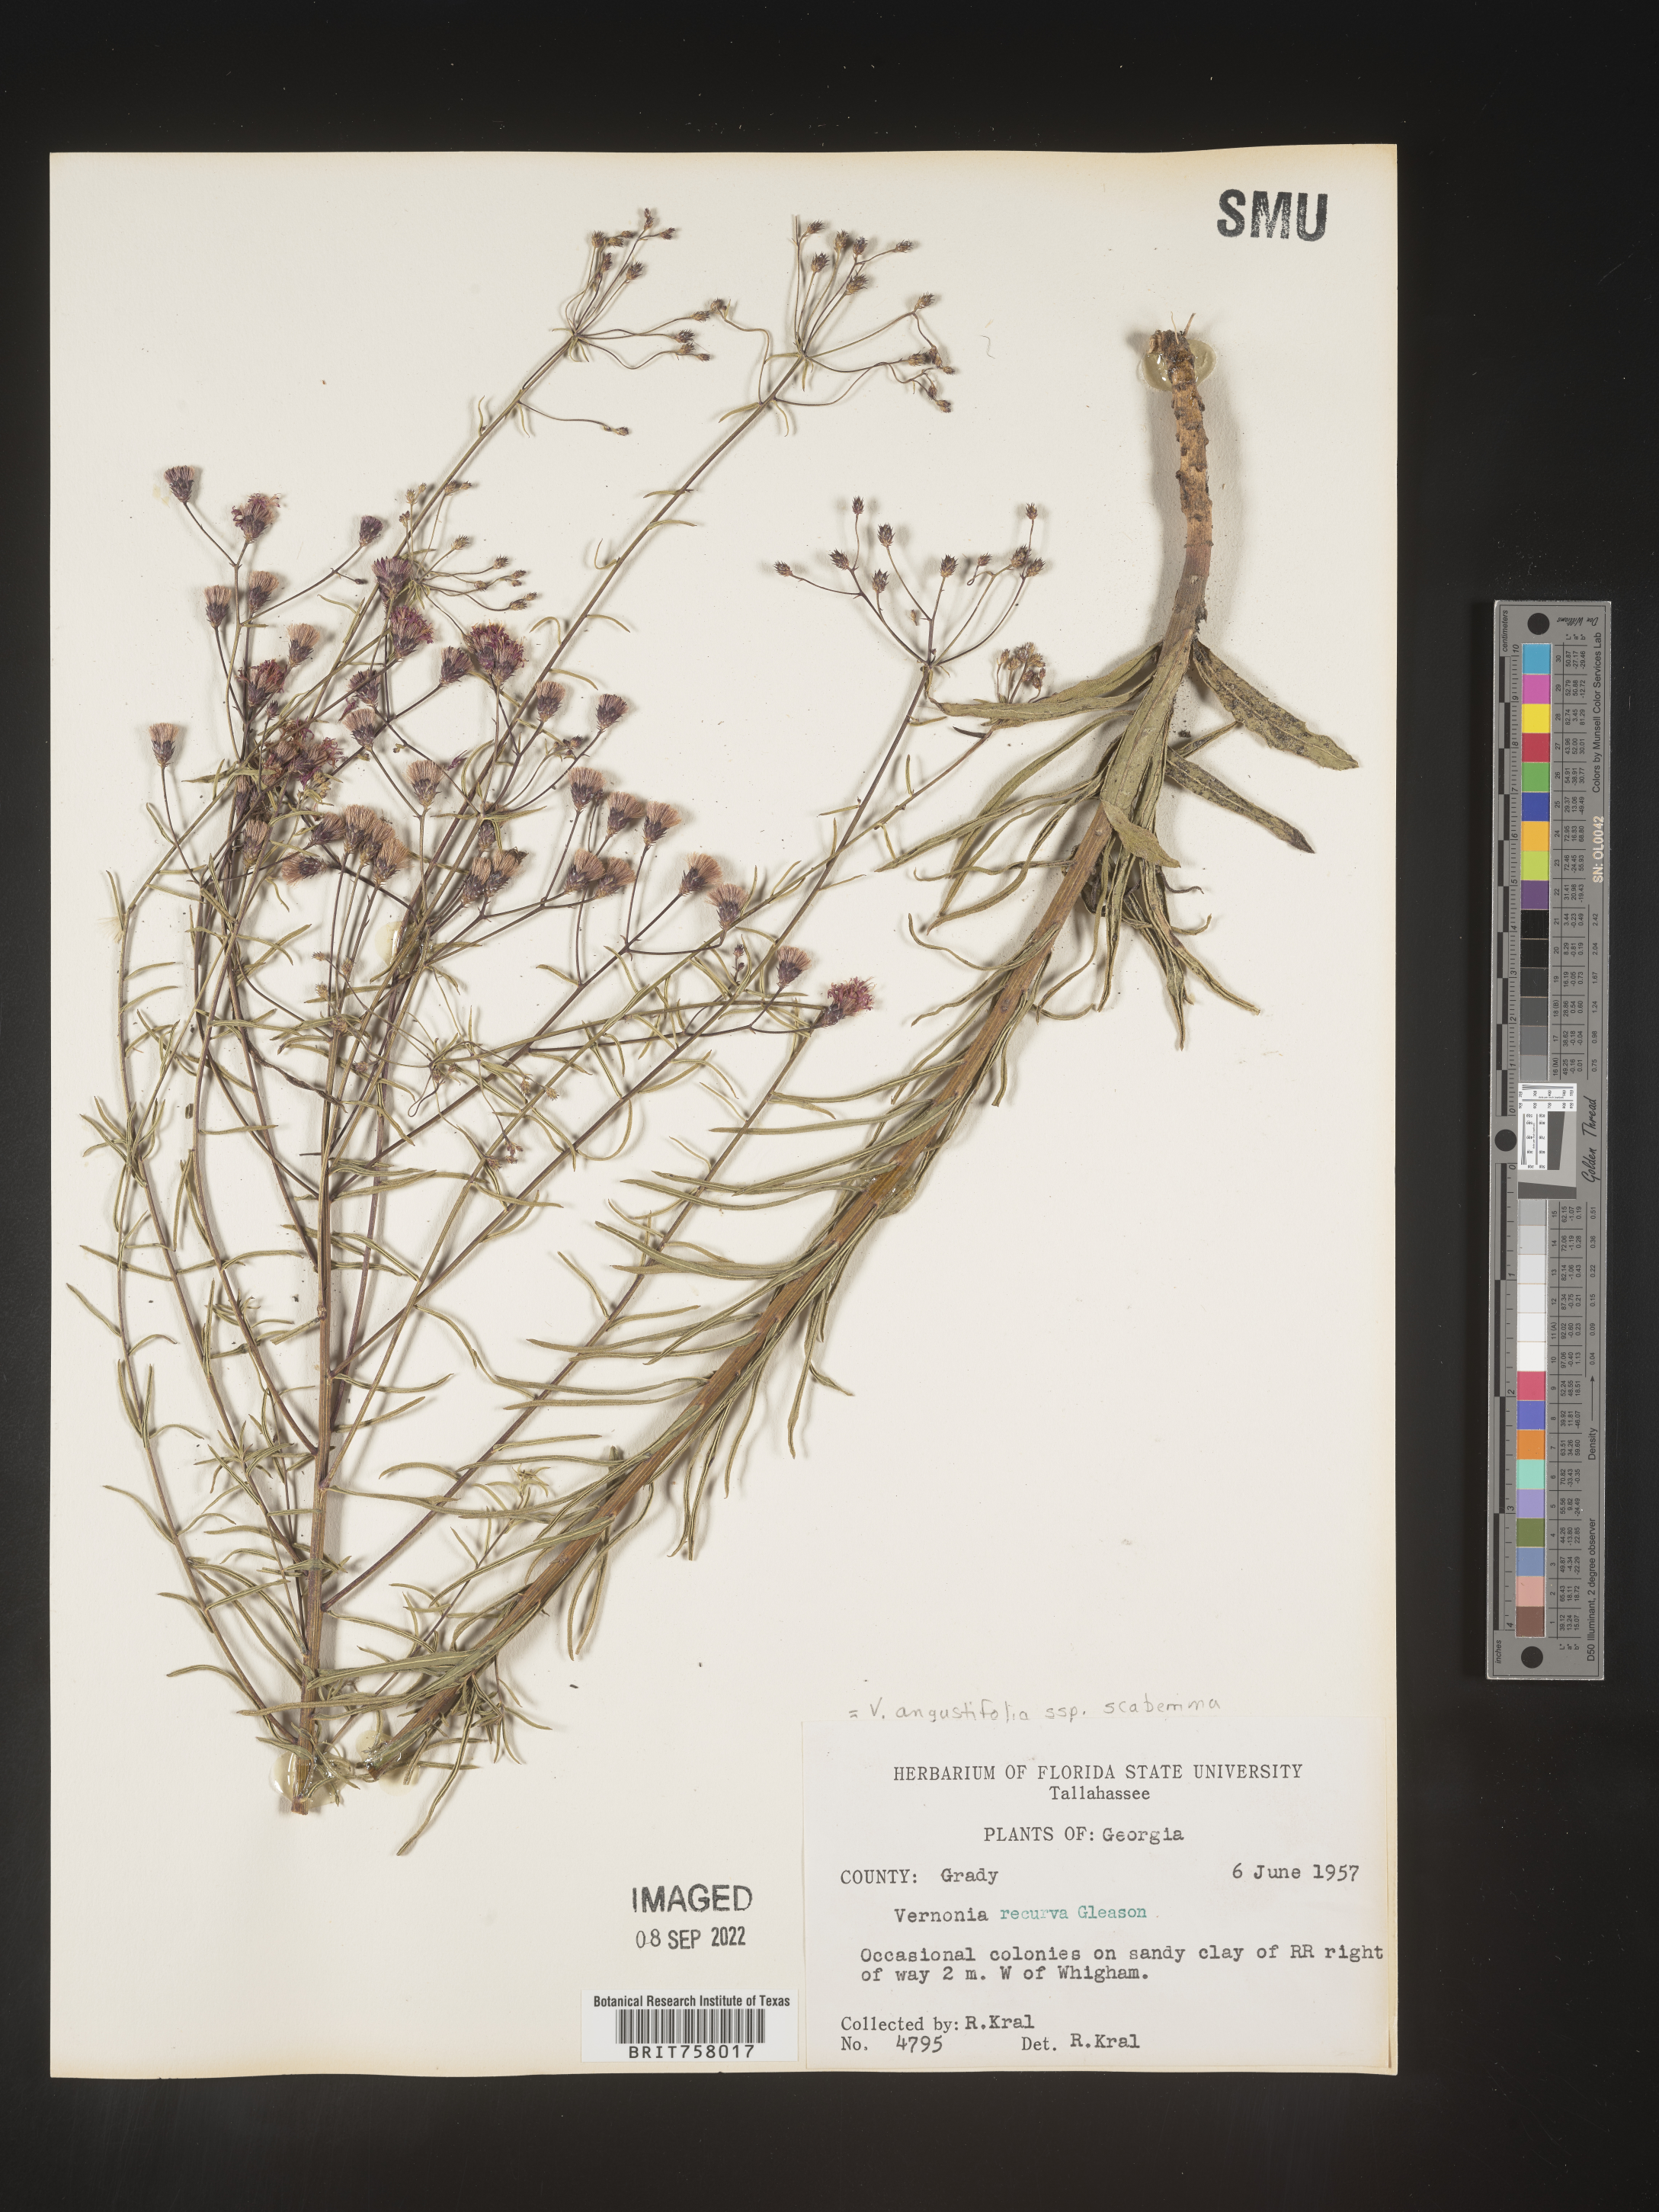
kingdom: Plantae
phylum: Tracheophyta
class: Magnoliopsida
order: Asterales
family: Asteraceae
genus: Vernonia
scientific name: Vernonia angustifolia
